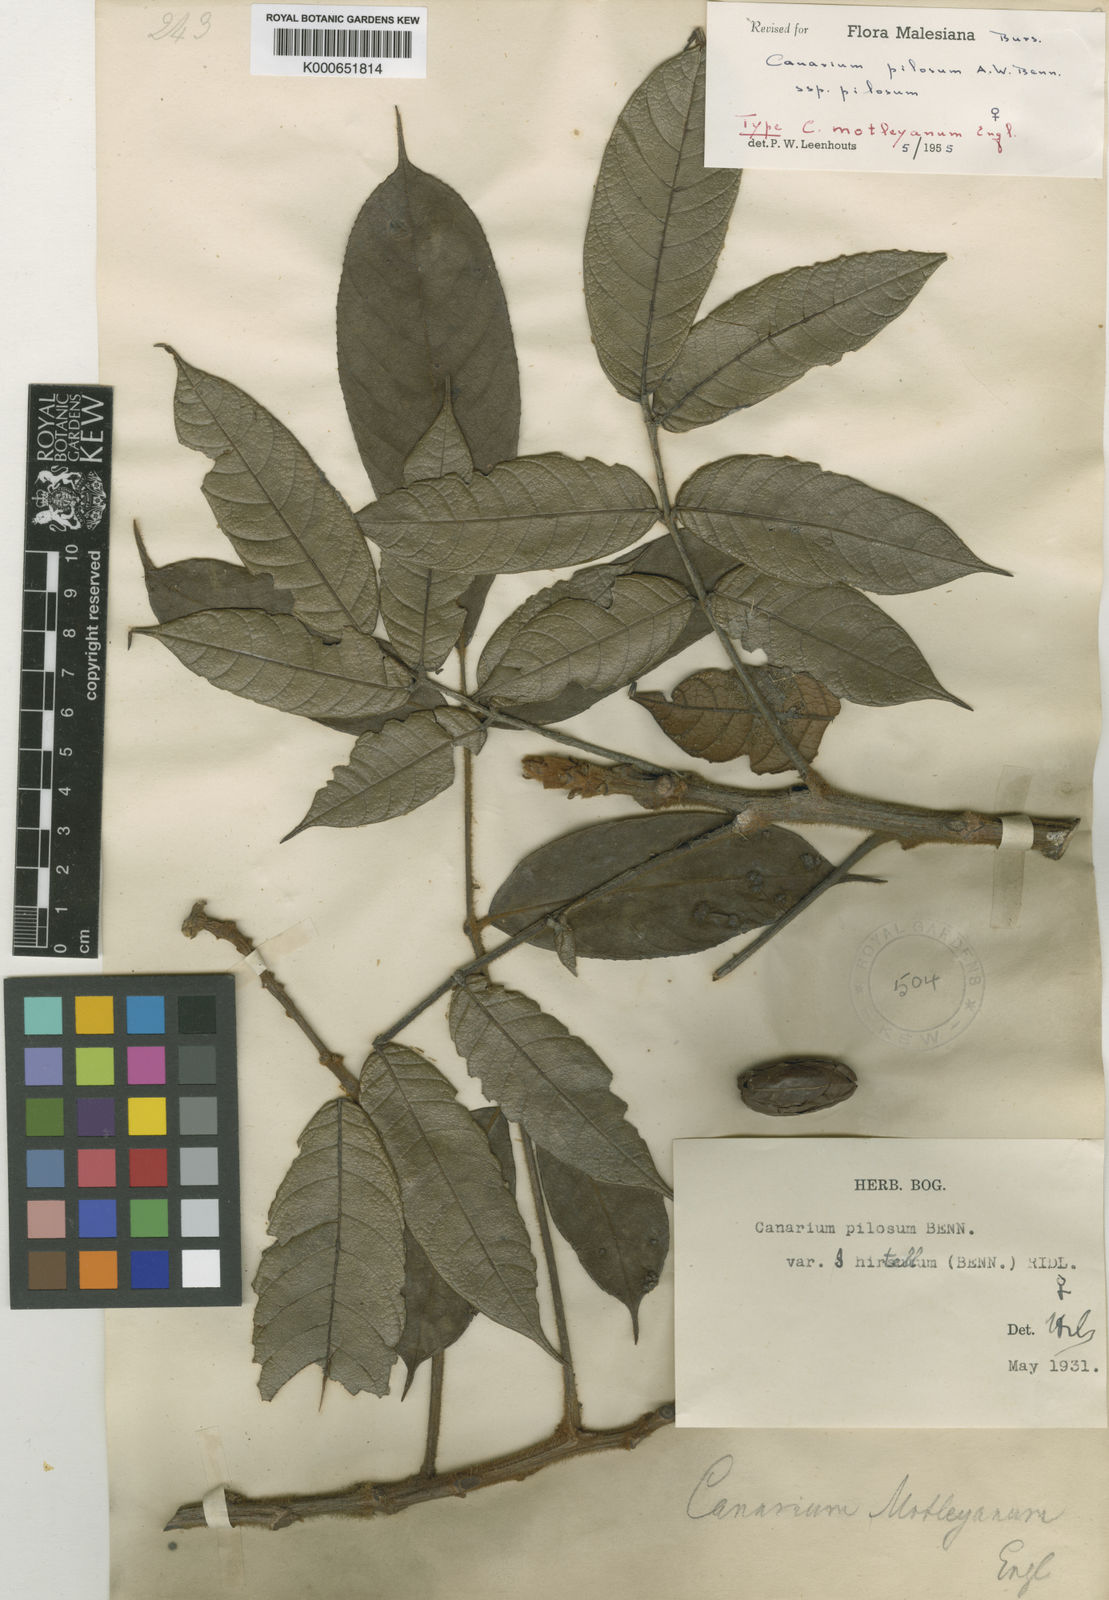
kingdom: Plantae
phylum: Tracheophyta
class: Magnoliopsida
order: Sapindales
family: Burseraceae
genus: Canarium
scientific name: Canarium pilosum
